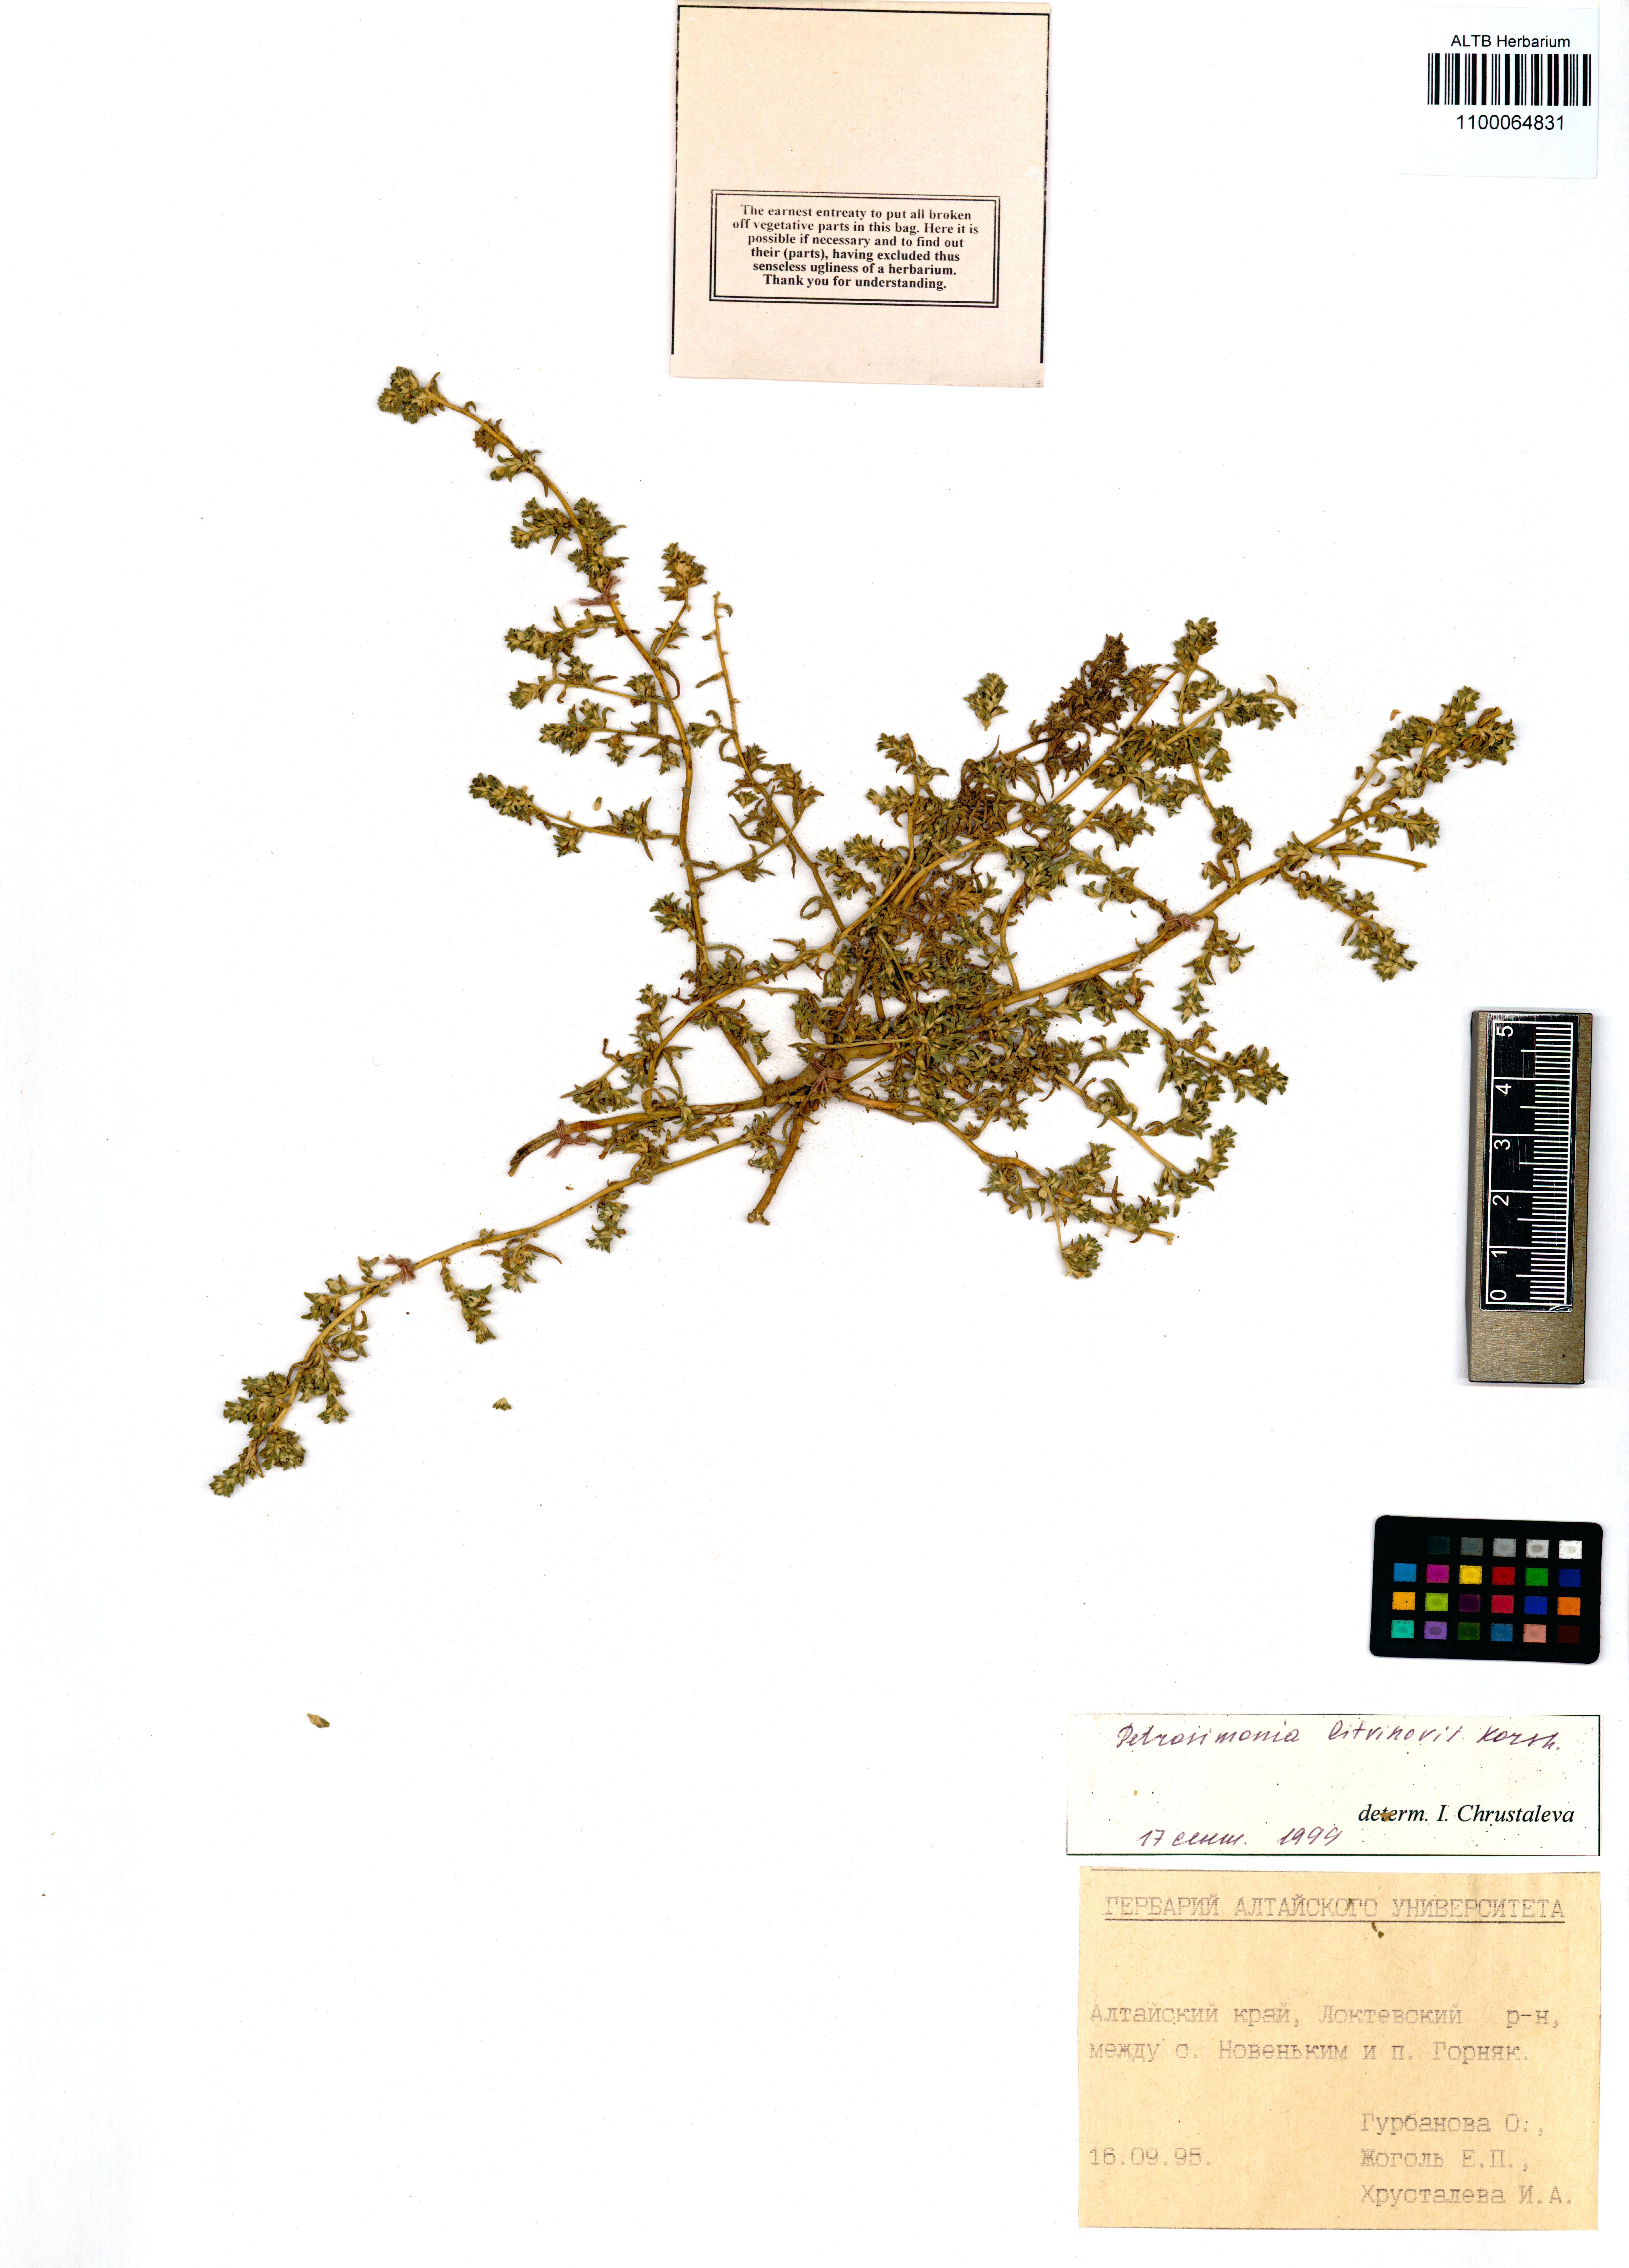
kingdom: Plantae
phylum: Tracheophyta
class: Magnoliopsida
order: Caryophyllales
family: Amaranthaceae
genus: Petrosimonia
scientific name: Petrosimonia litvinowi
